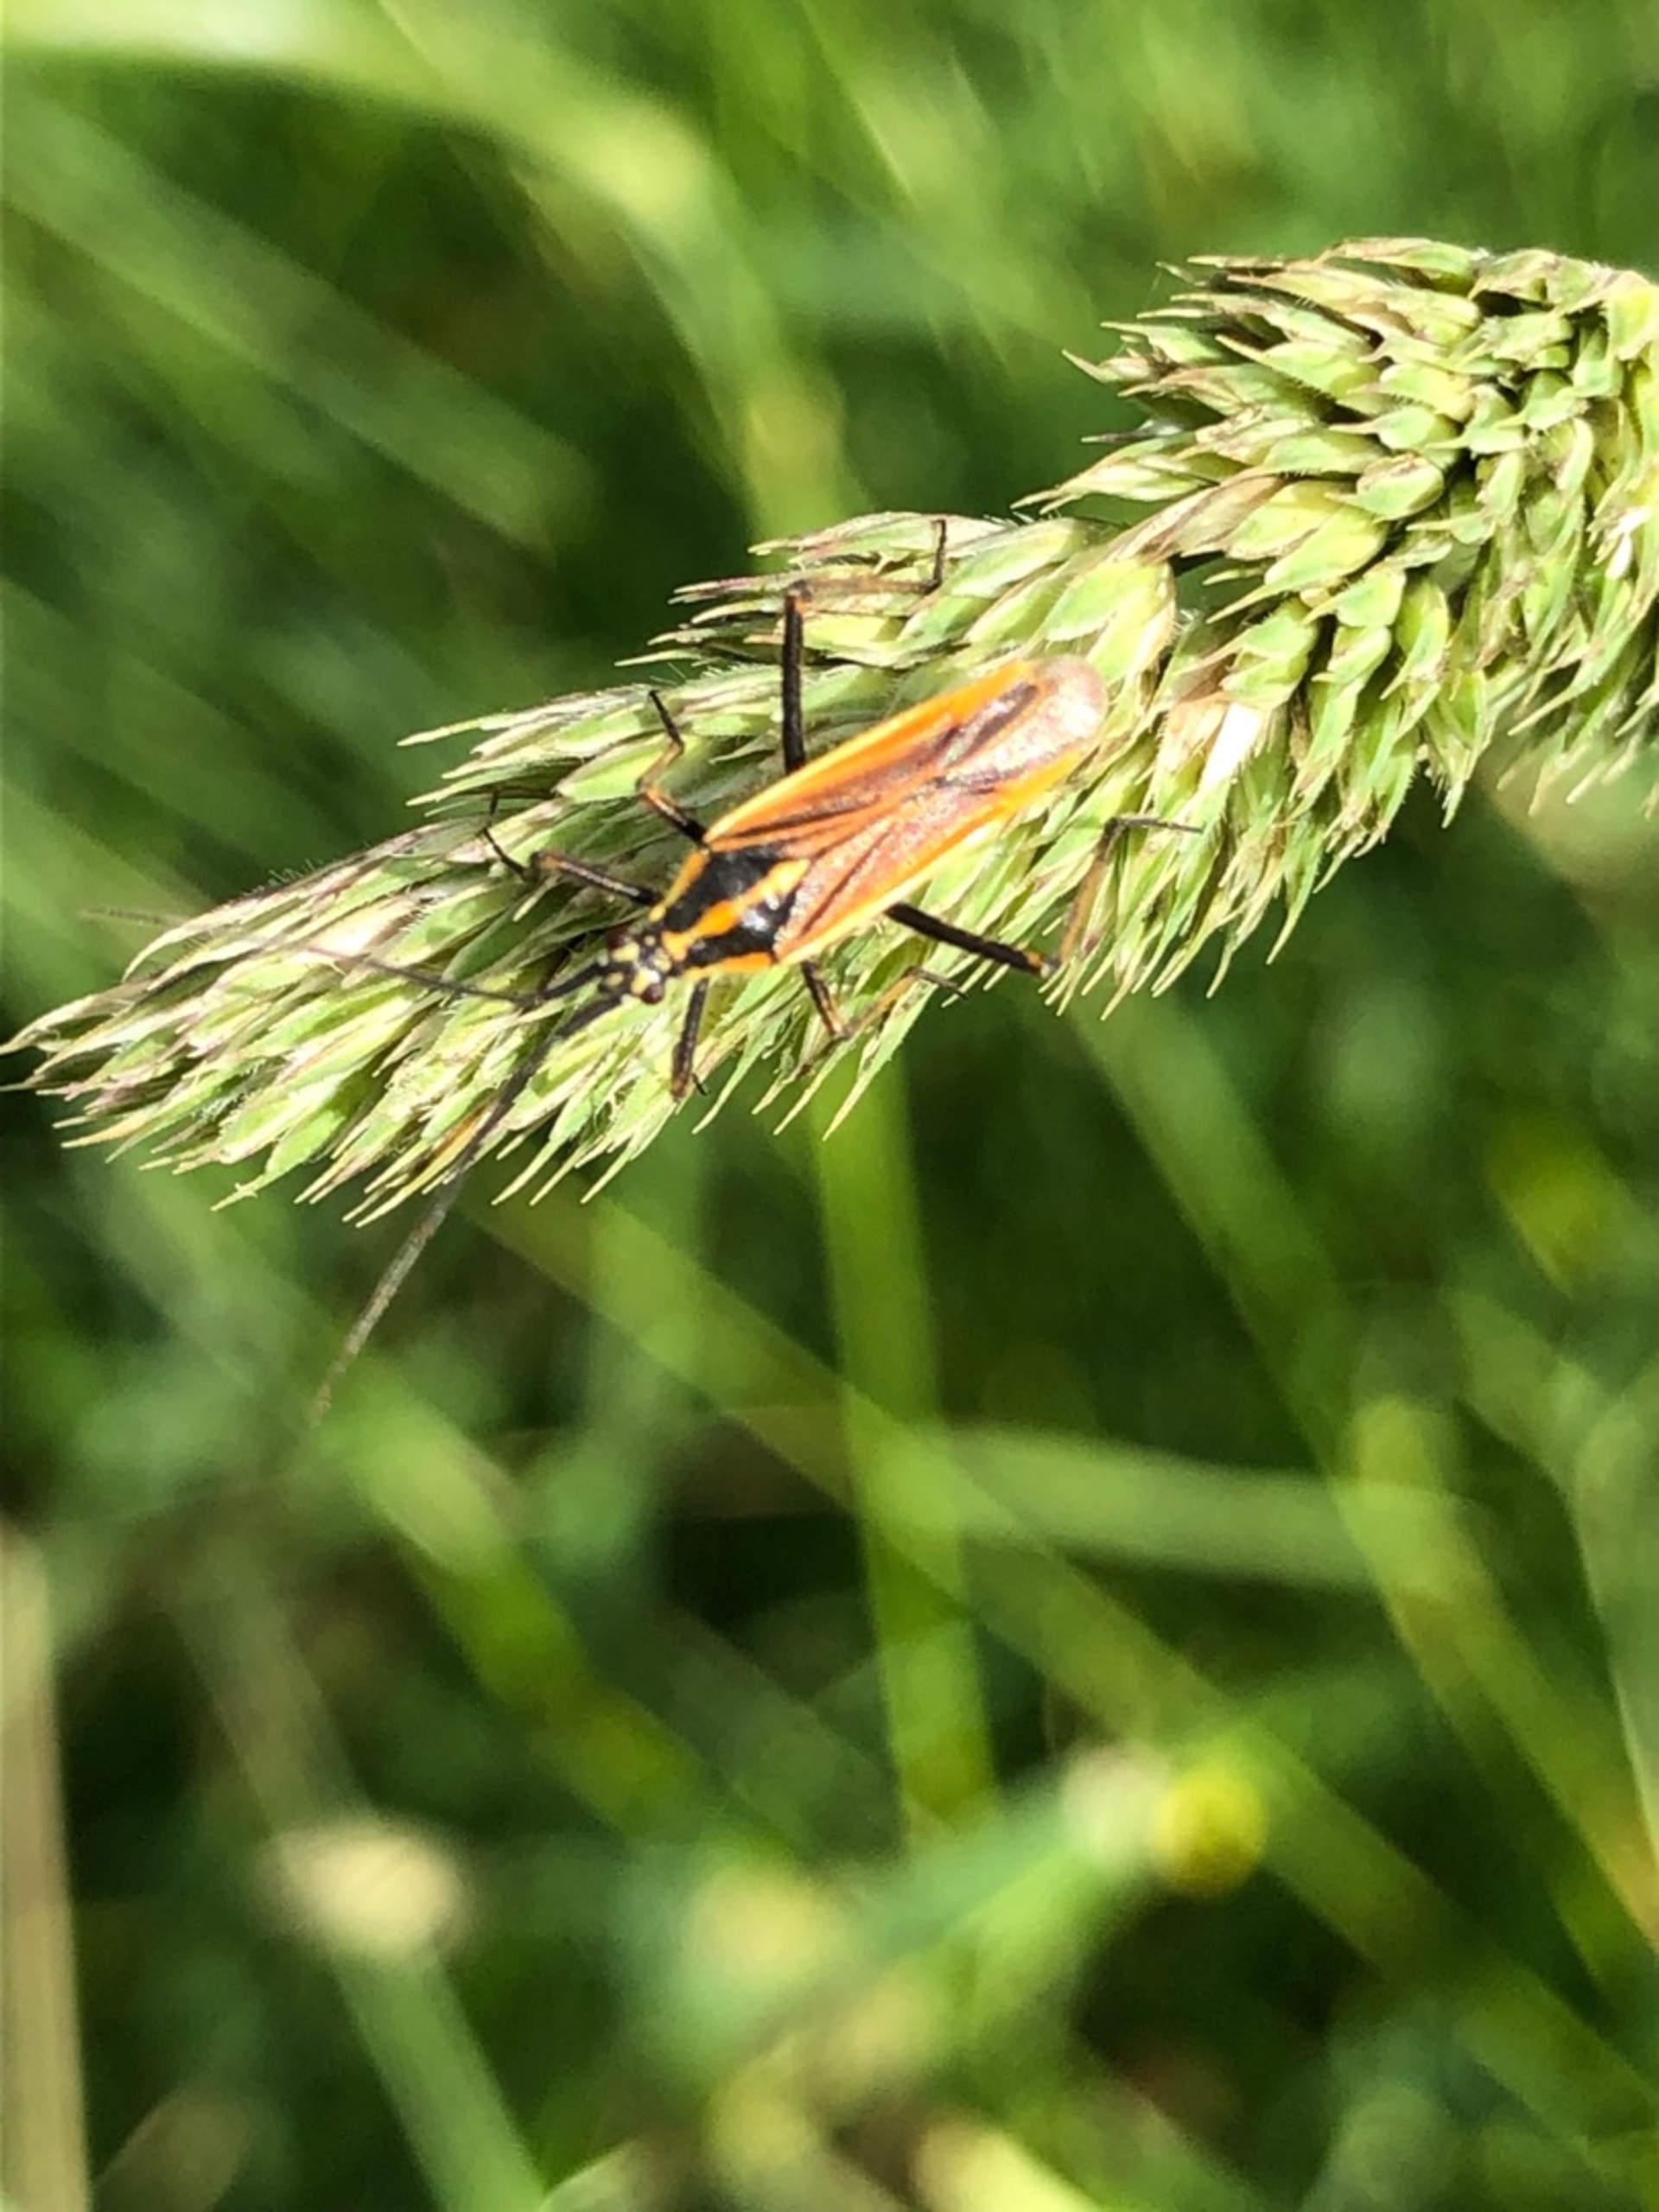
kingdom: Animalia
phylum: Arthropoda
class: Insecta
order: Hemiptera
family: Miridae
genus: Leptopterna
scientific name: Leptopterna dolabrata
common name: Almindelig græstæge
